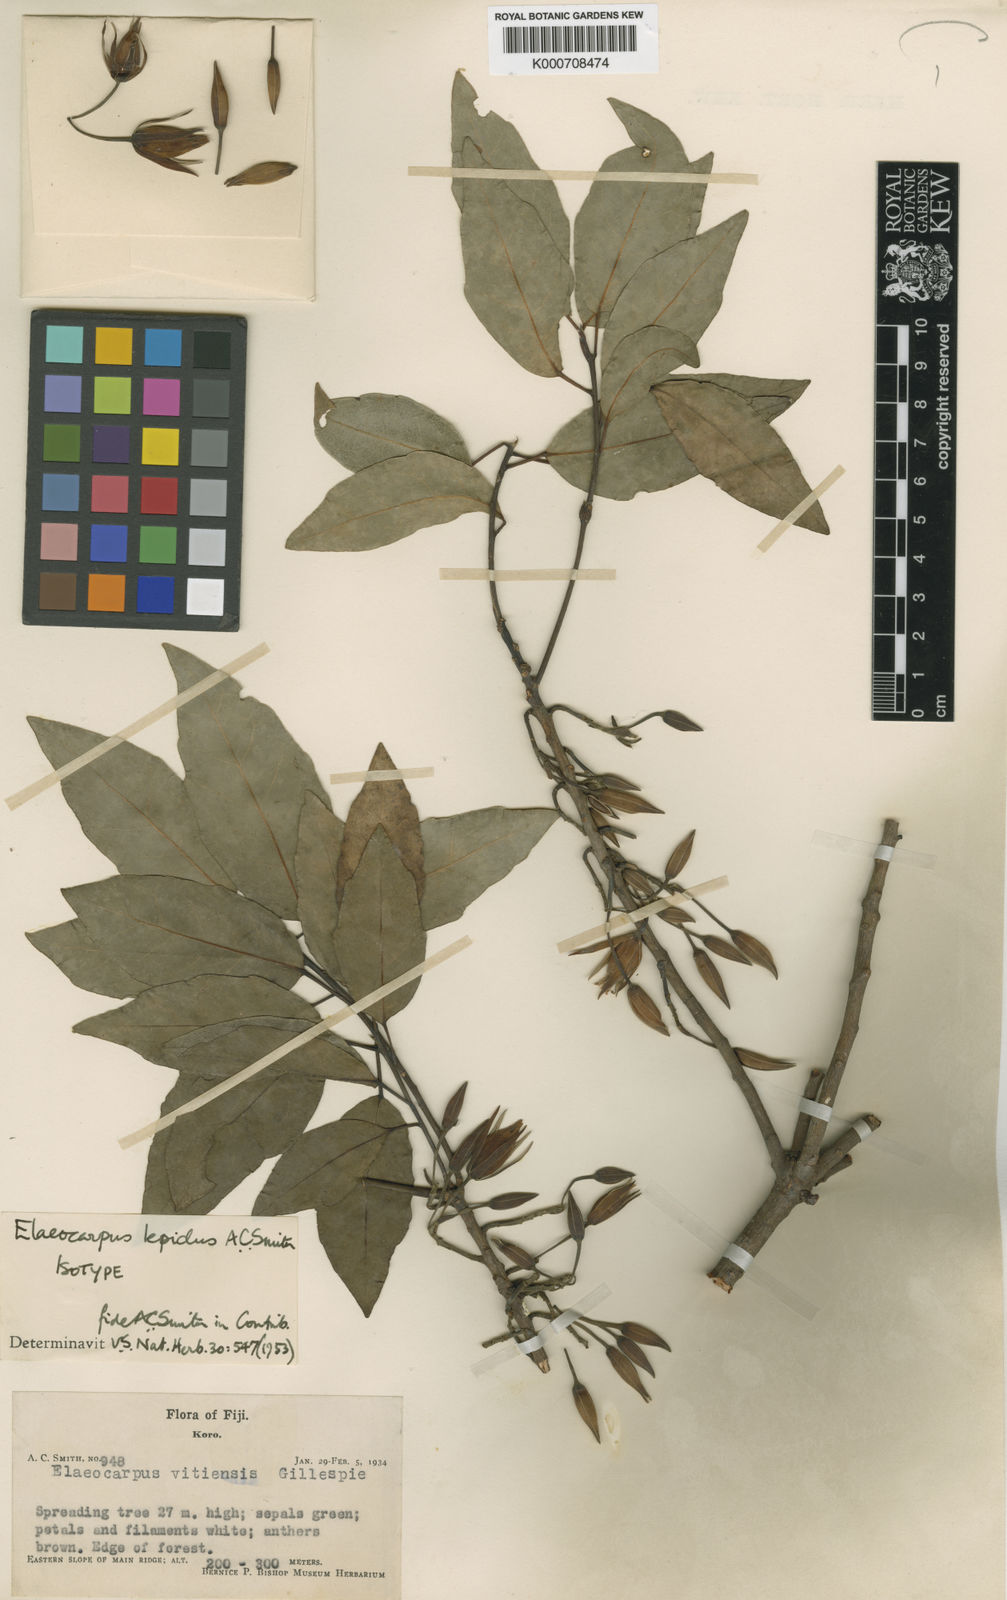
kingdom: Plantae
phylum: Tracheophyta
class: Magnoliopsida
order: Oxalidales
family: Elaeocarpaceae
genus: Elaeocarpus
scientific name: Elaeocarpus lepidus
